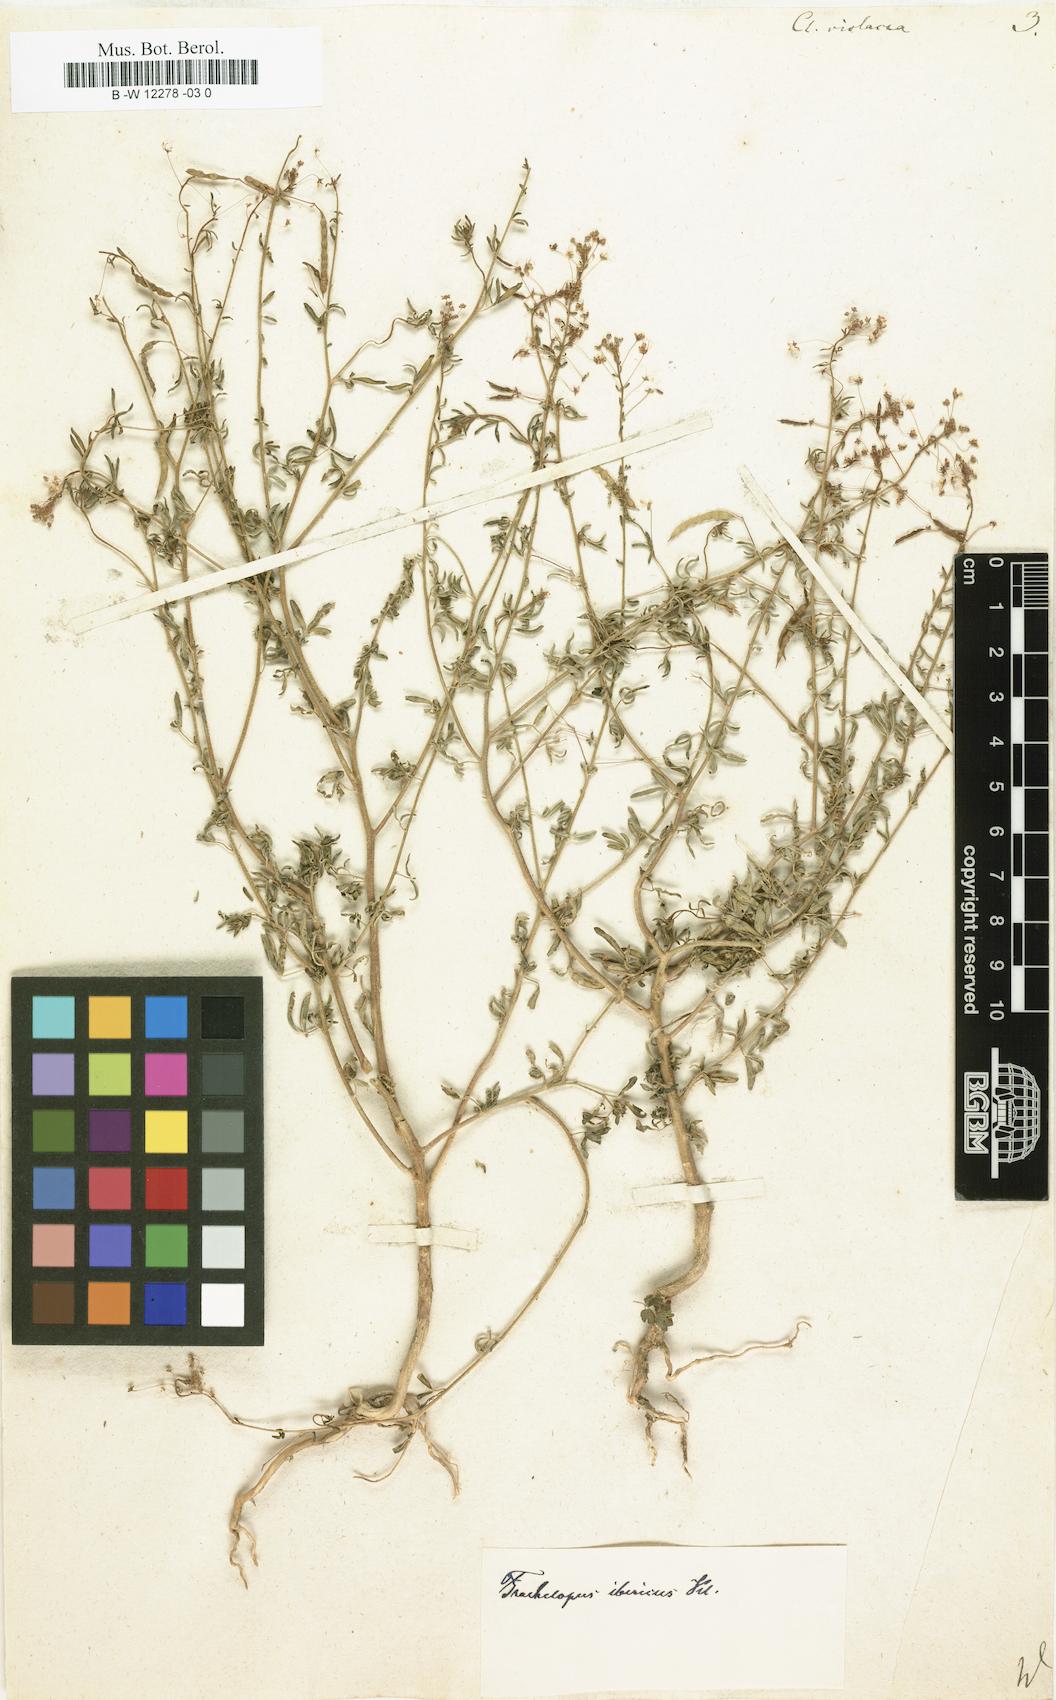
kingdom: Plantae
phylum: Tracheophyta
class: Magnoliopsida
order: Brassicales
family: Cleomaceae
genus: Cleome
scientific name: Cleome violacea
